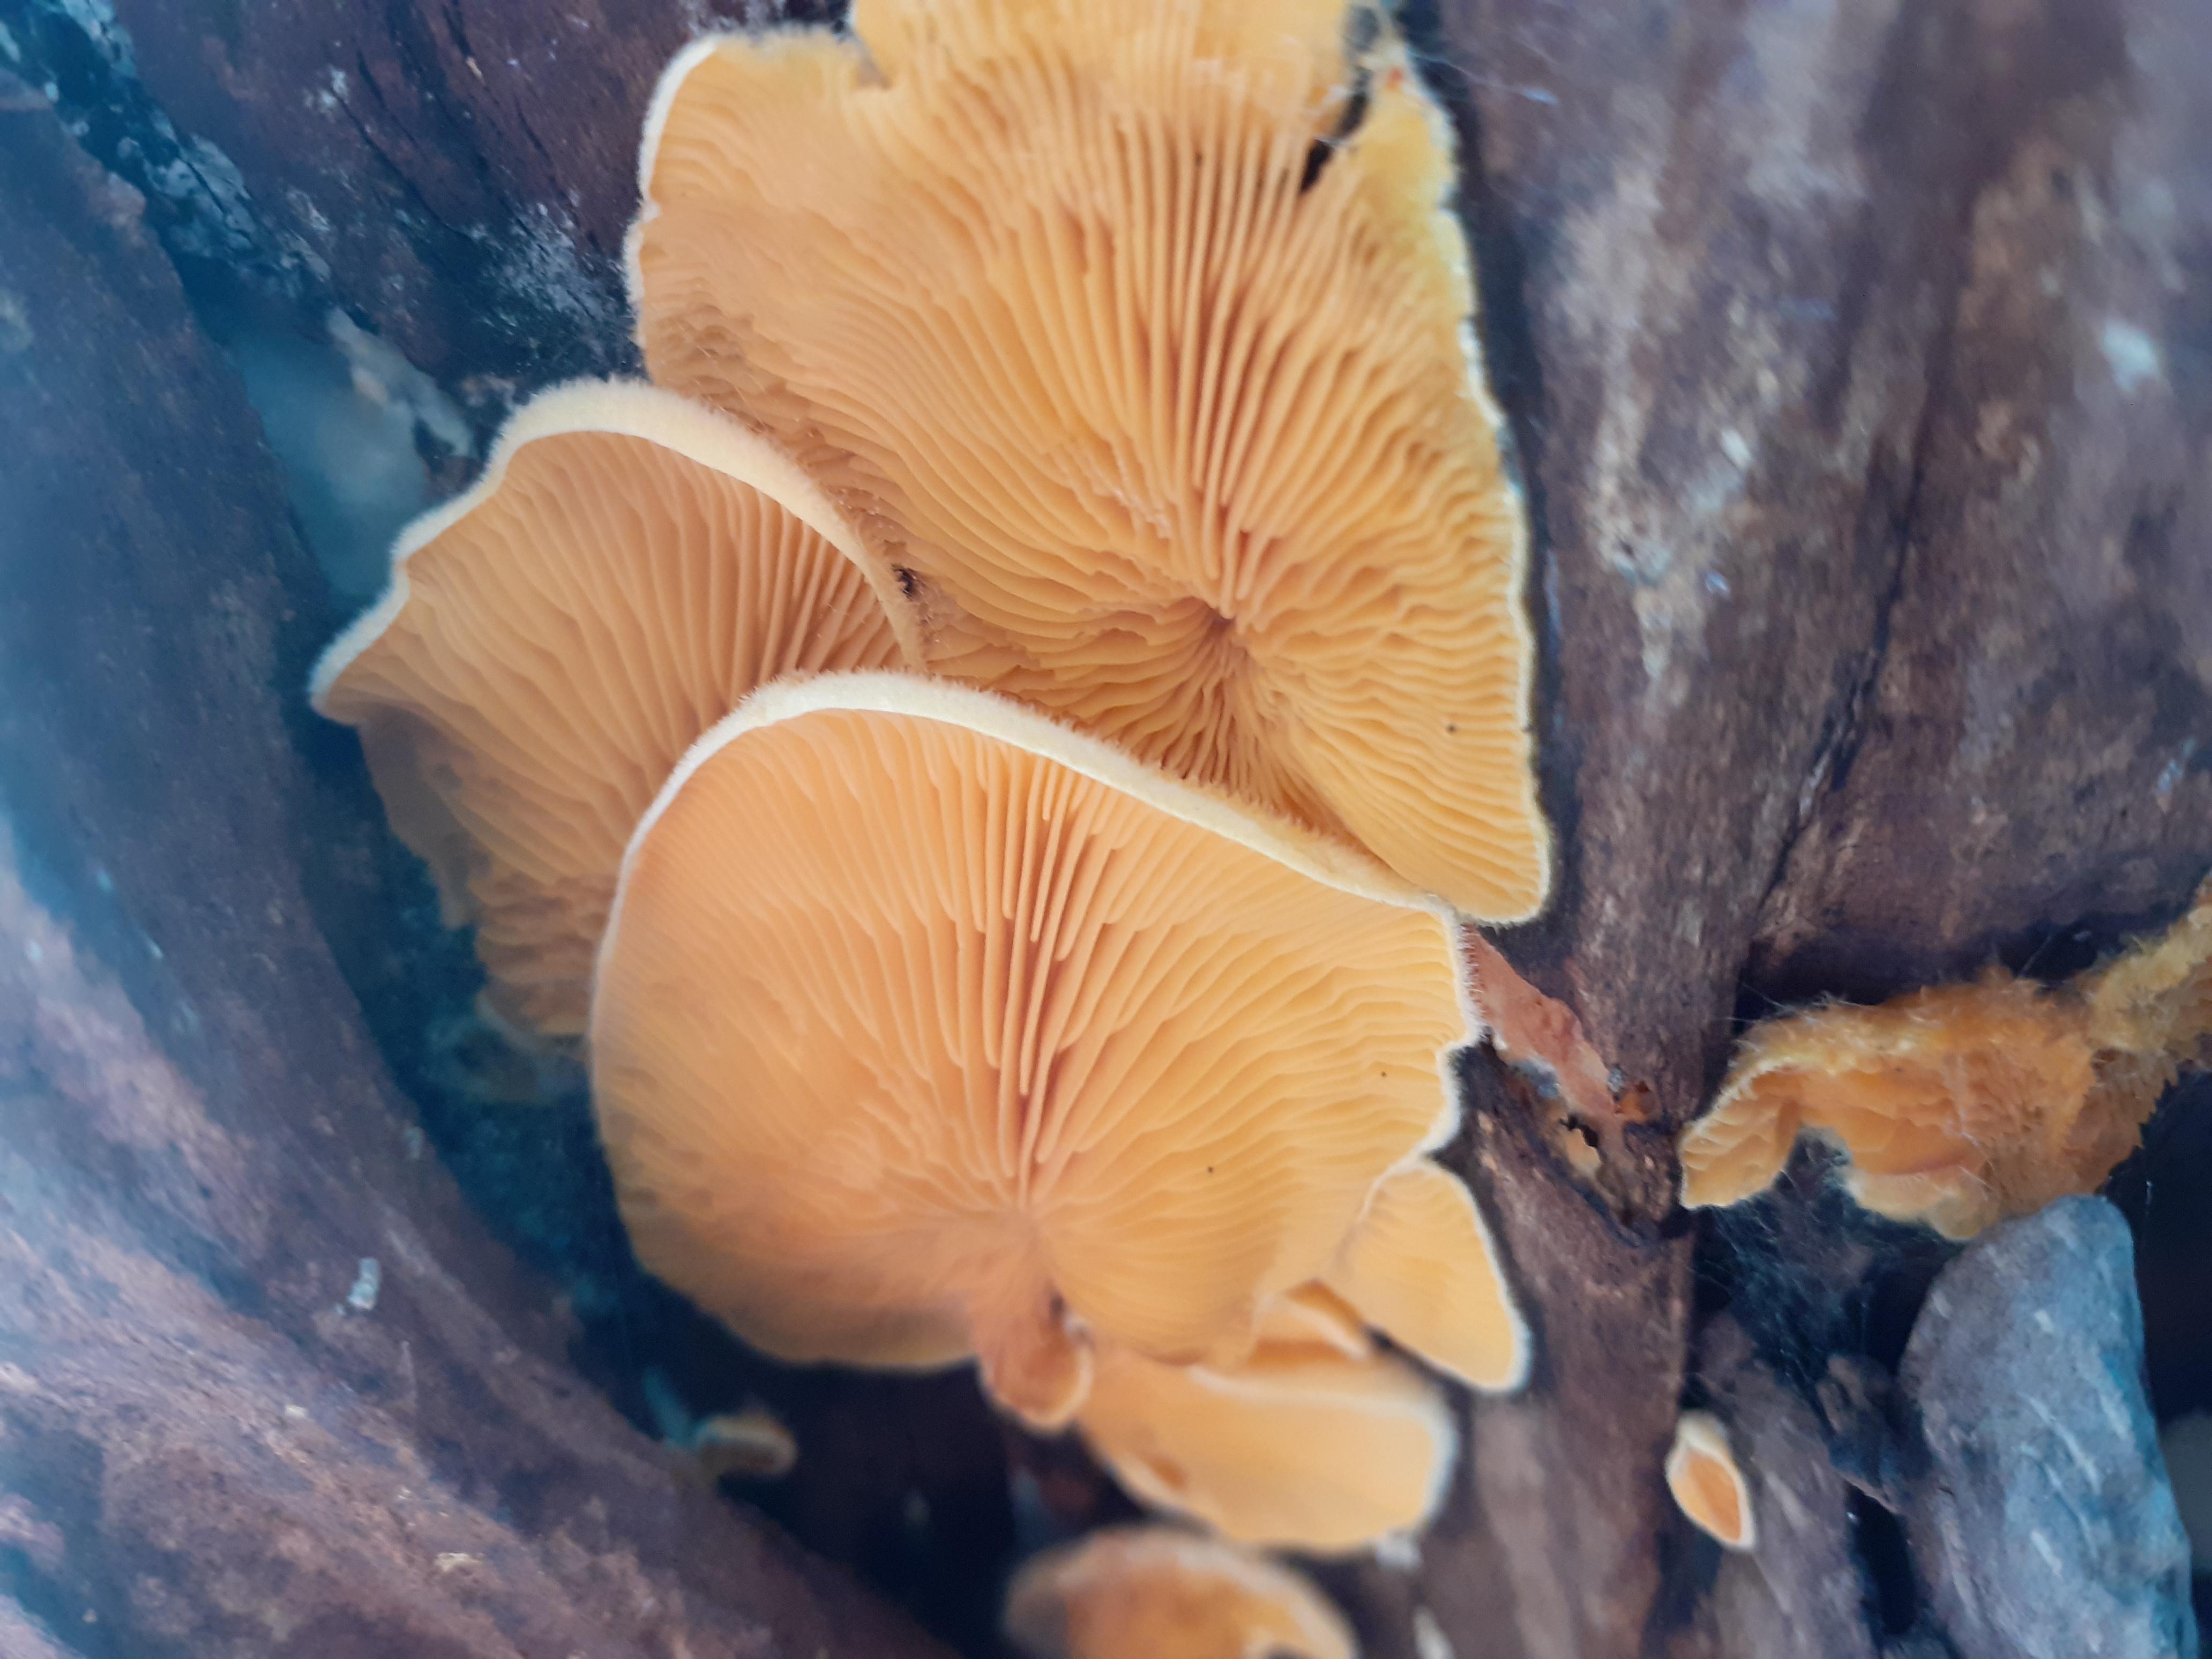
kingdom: Fungi
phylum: Basidiomycota
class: Agaricomycetes
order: Agaricales
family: Phyllotopsidaceae
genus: Phyllotopsis
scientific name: Phyllotopsis nidulans
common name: okkerblad
